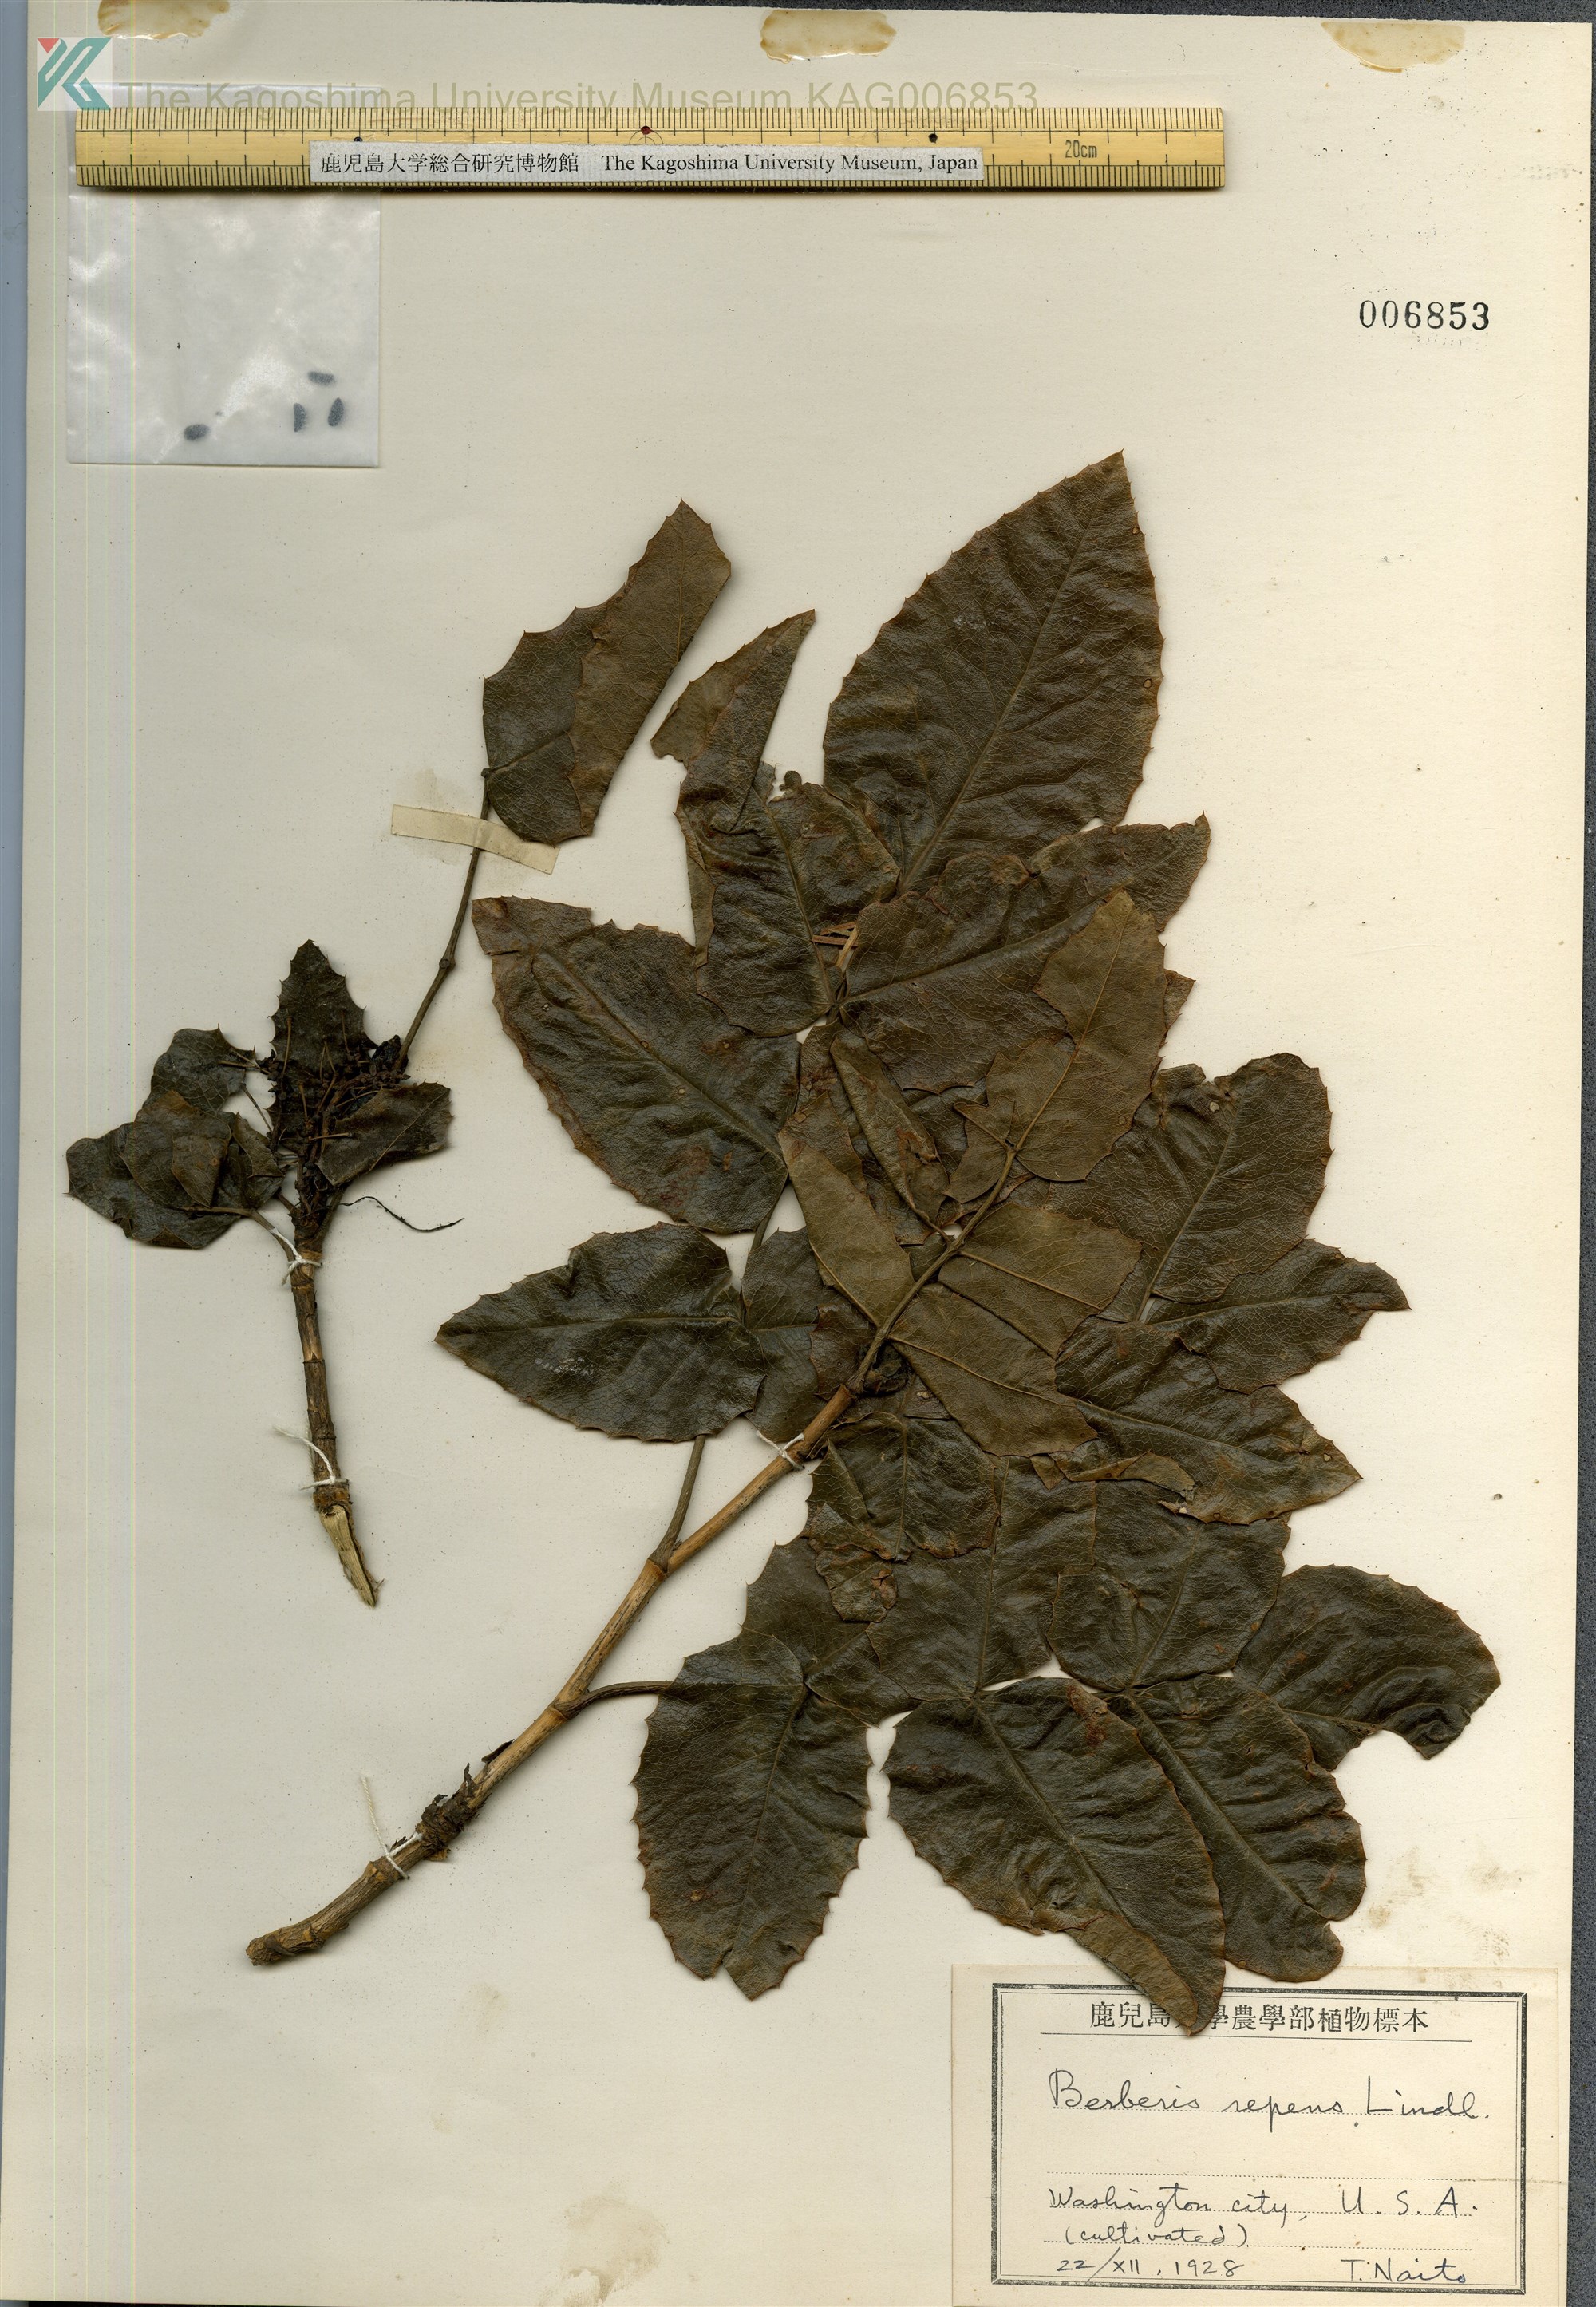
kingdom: Plantae
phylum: Tracheophyta
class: Magnoliopsida
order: Ranunculales
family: Berberidaceae
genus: Mahonia
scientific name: Mahonia repens
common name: Creeping oregon-grape
